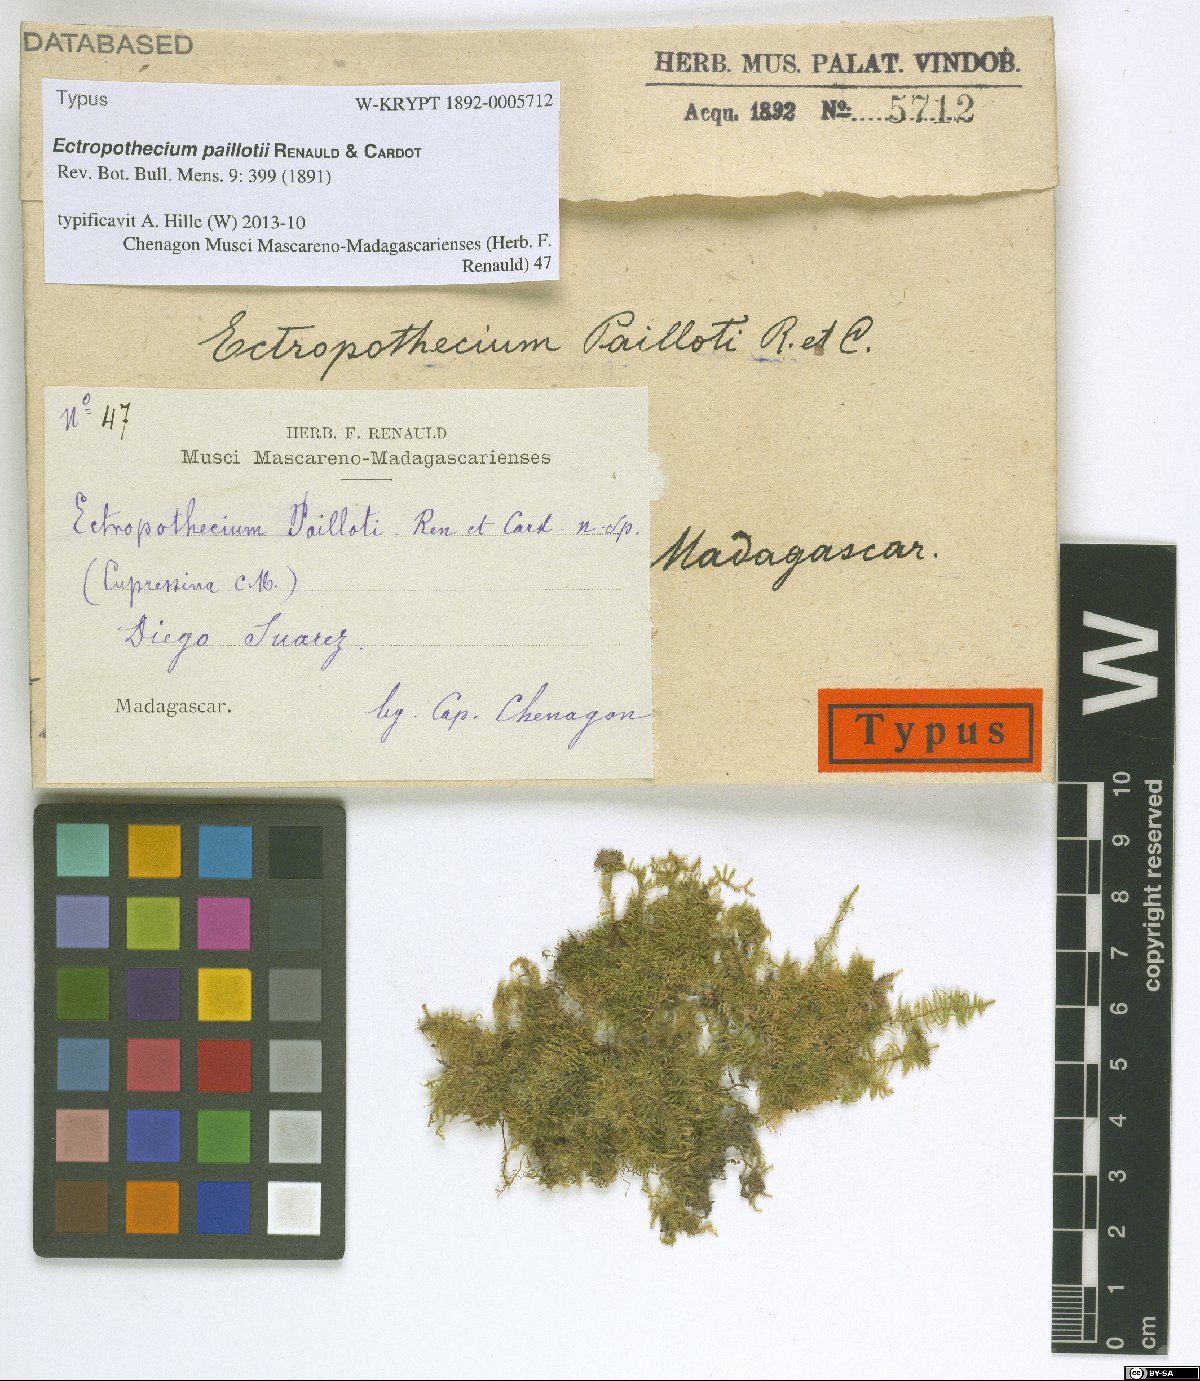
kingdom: Plantae
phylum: Bryophyta
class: Bryopsida
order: Hypnales
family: Hypnaceae
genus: Ectropothecium
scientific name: Ectropothecium paillotii
